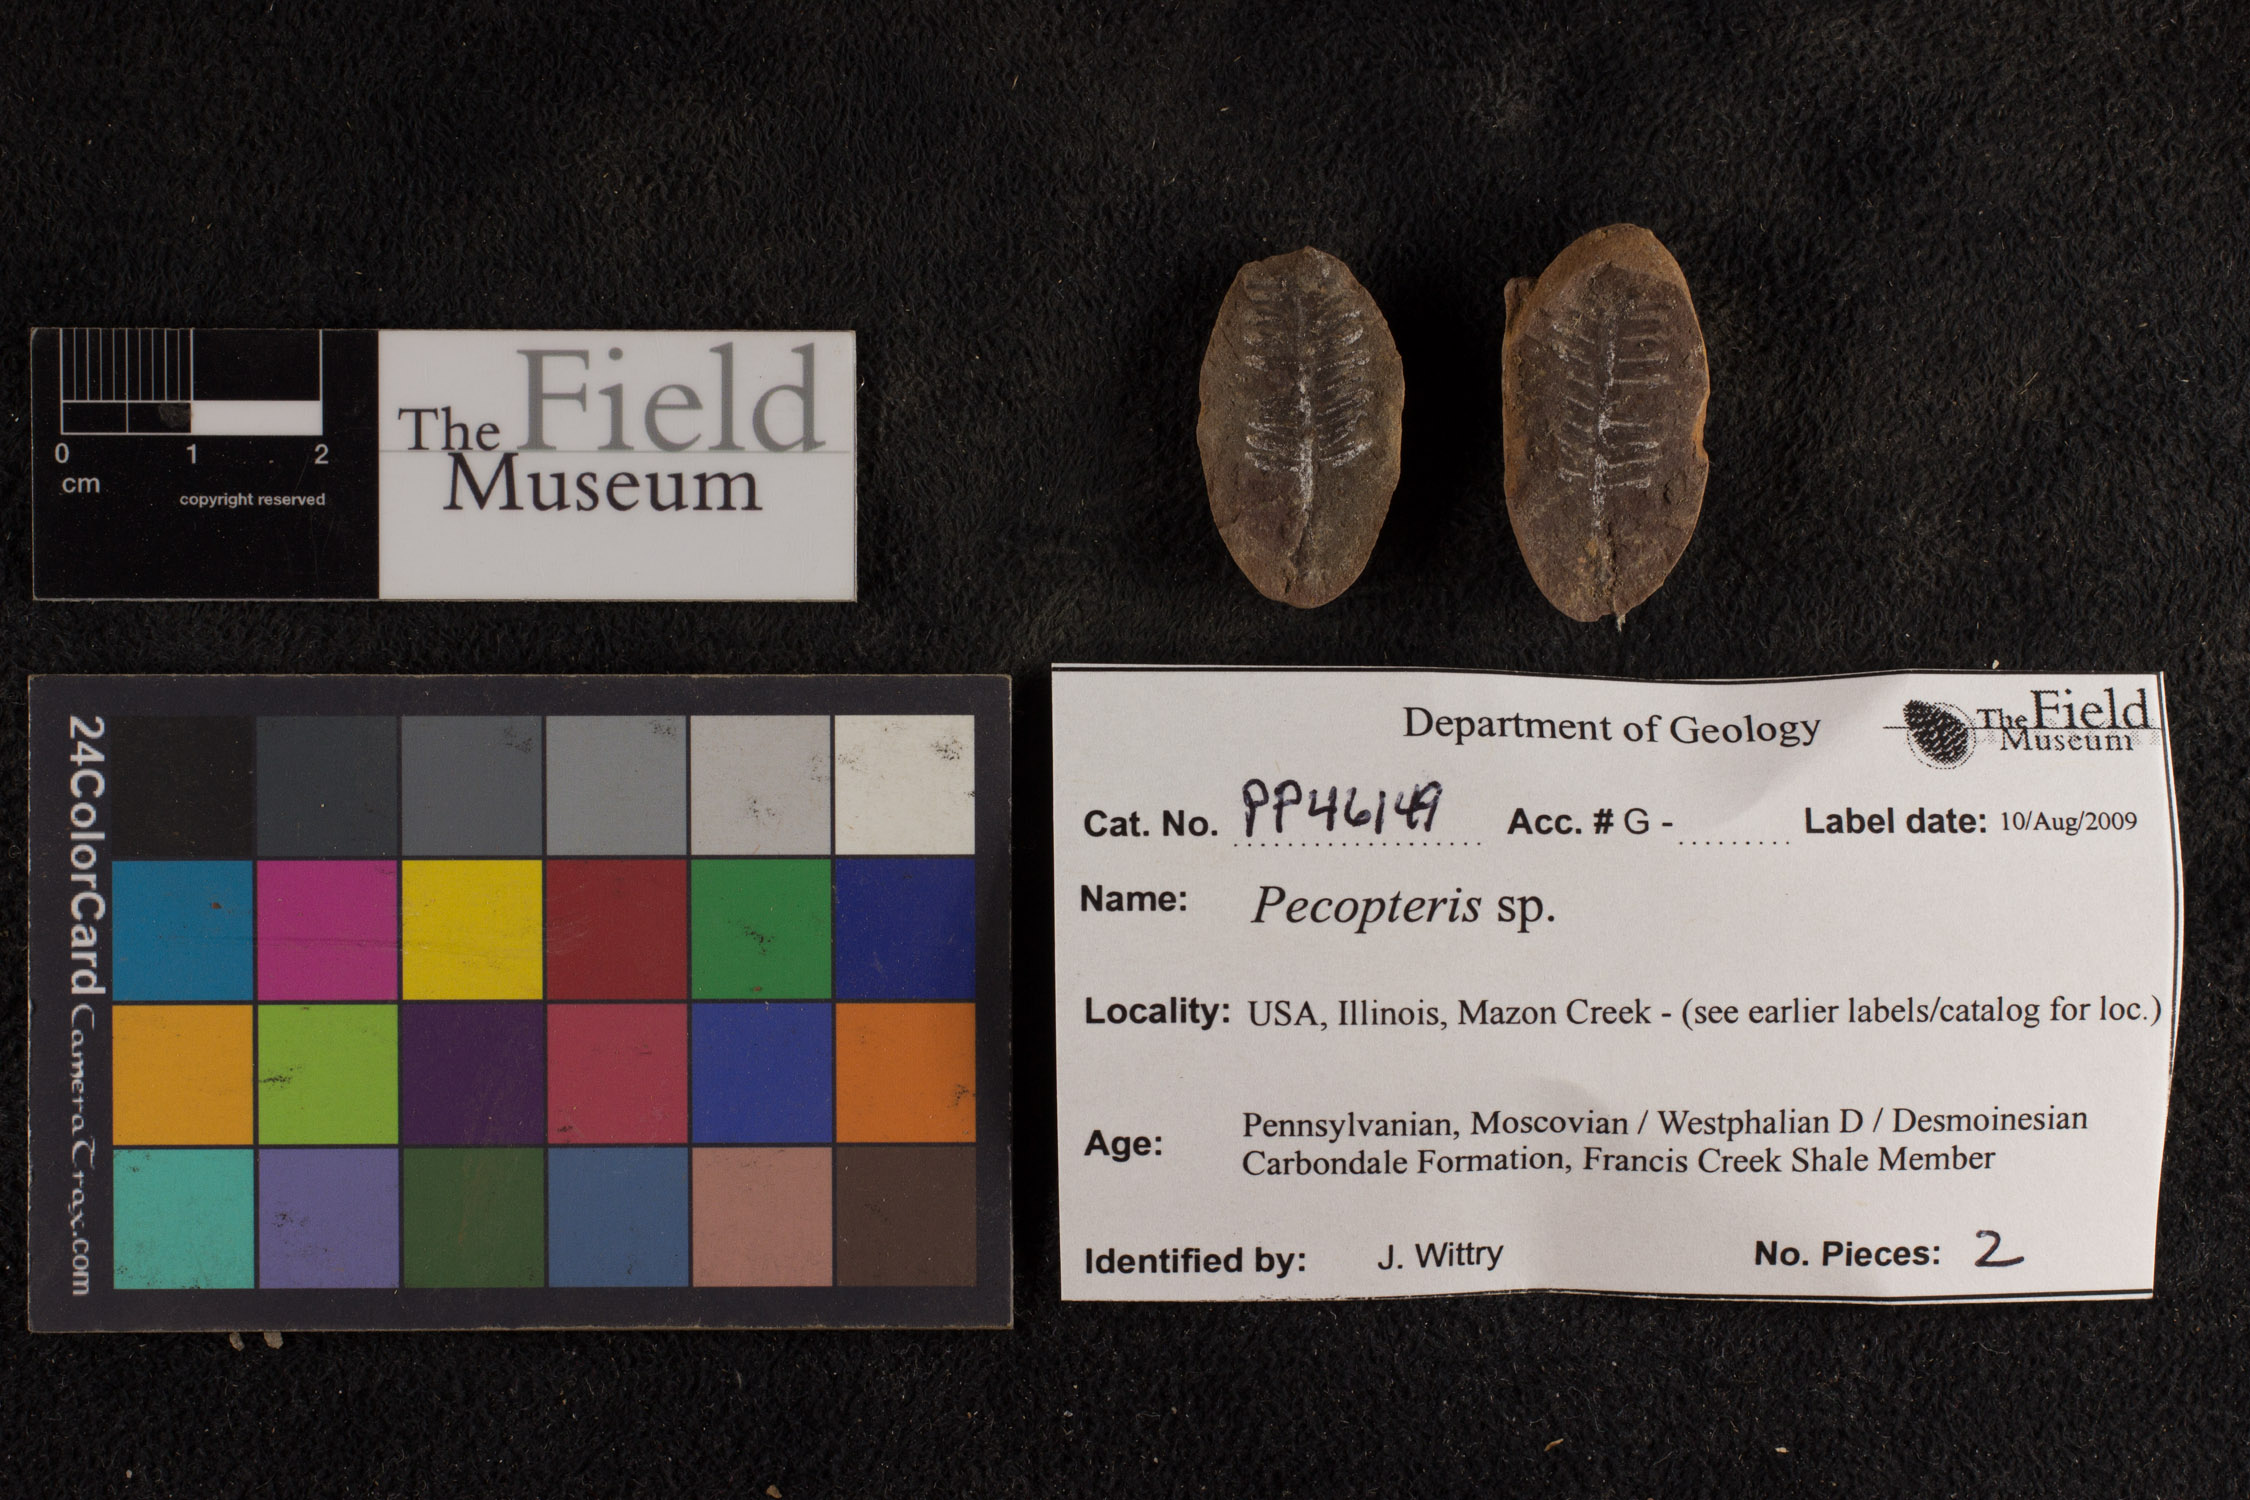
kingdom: Plantae
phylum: Tracheophyta
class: Polypodiopsida
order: Marattiales
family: Asterothecaceae
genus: Pecopteris
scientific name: Pecopteris
